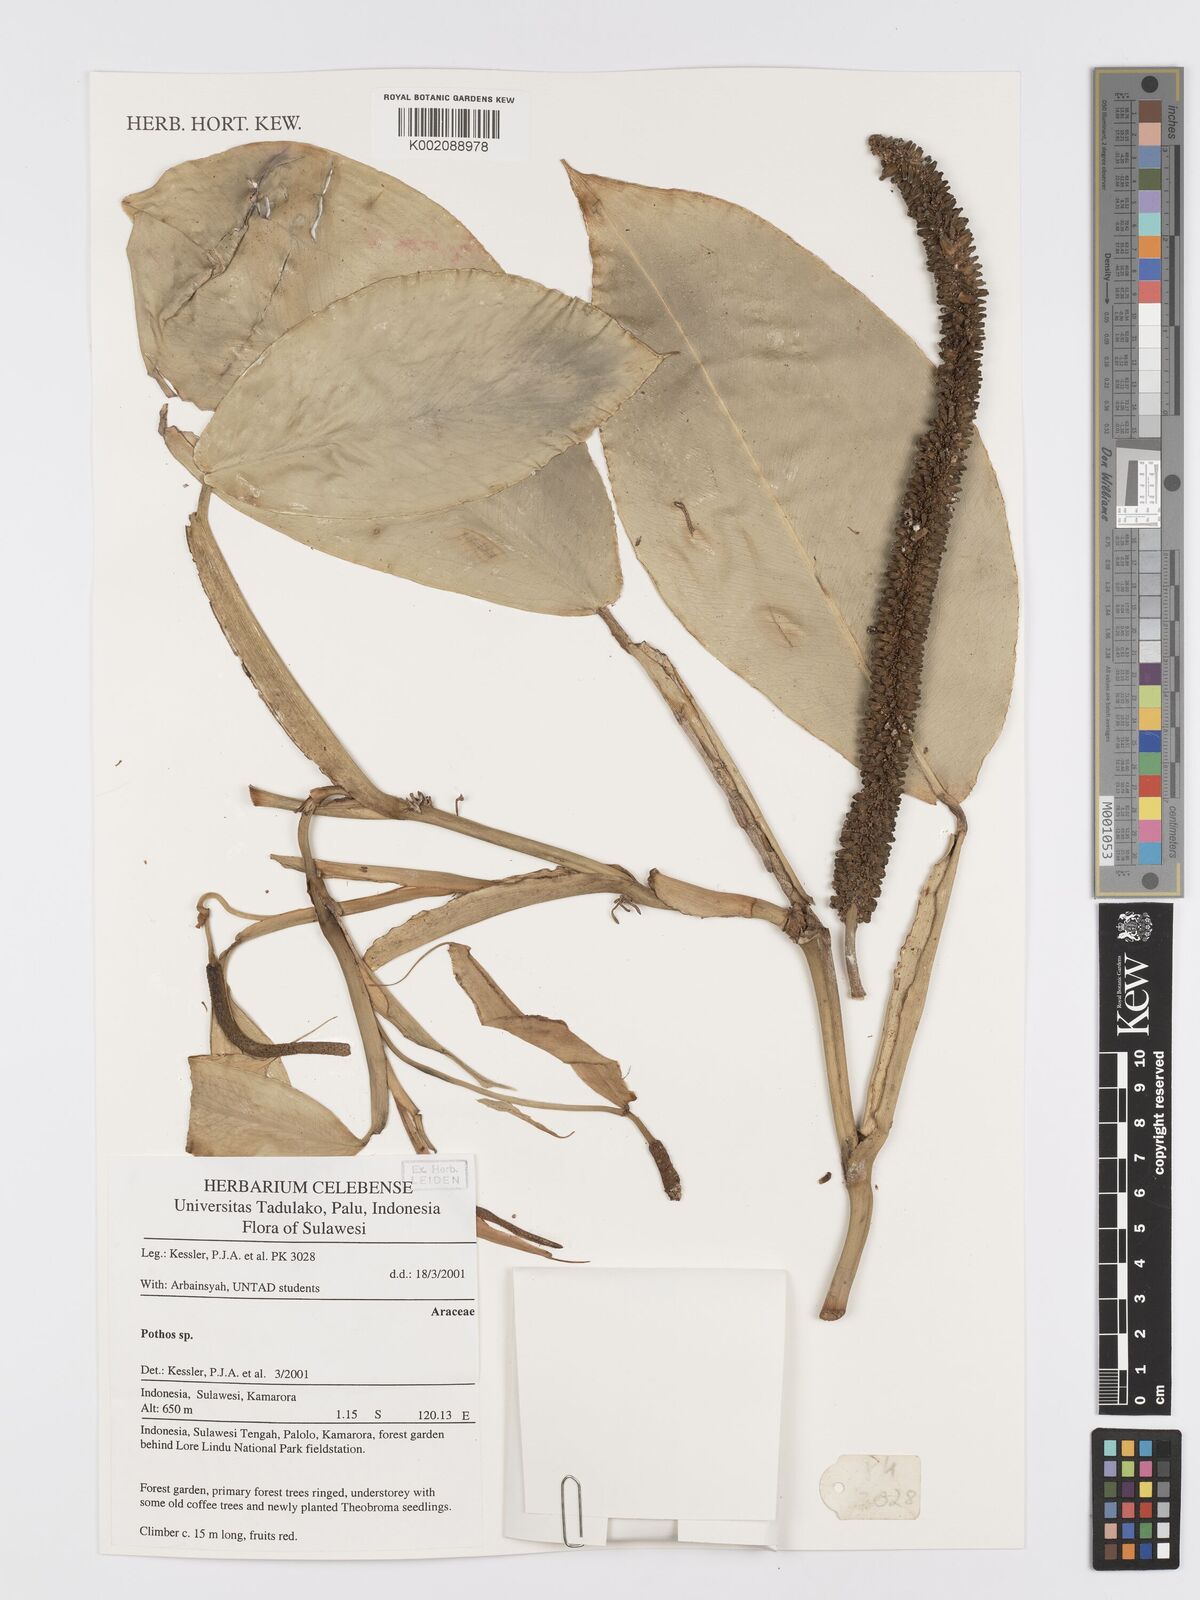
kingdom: Plantae
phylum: Tracheophyta
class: Liliopsida
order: Alismatales
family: Araceae
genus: Pothos
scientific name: Pothos
